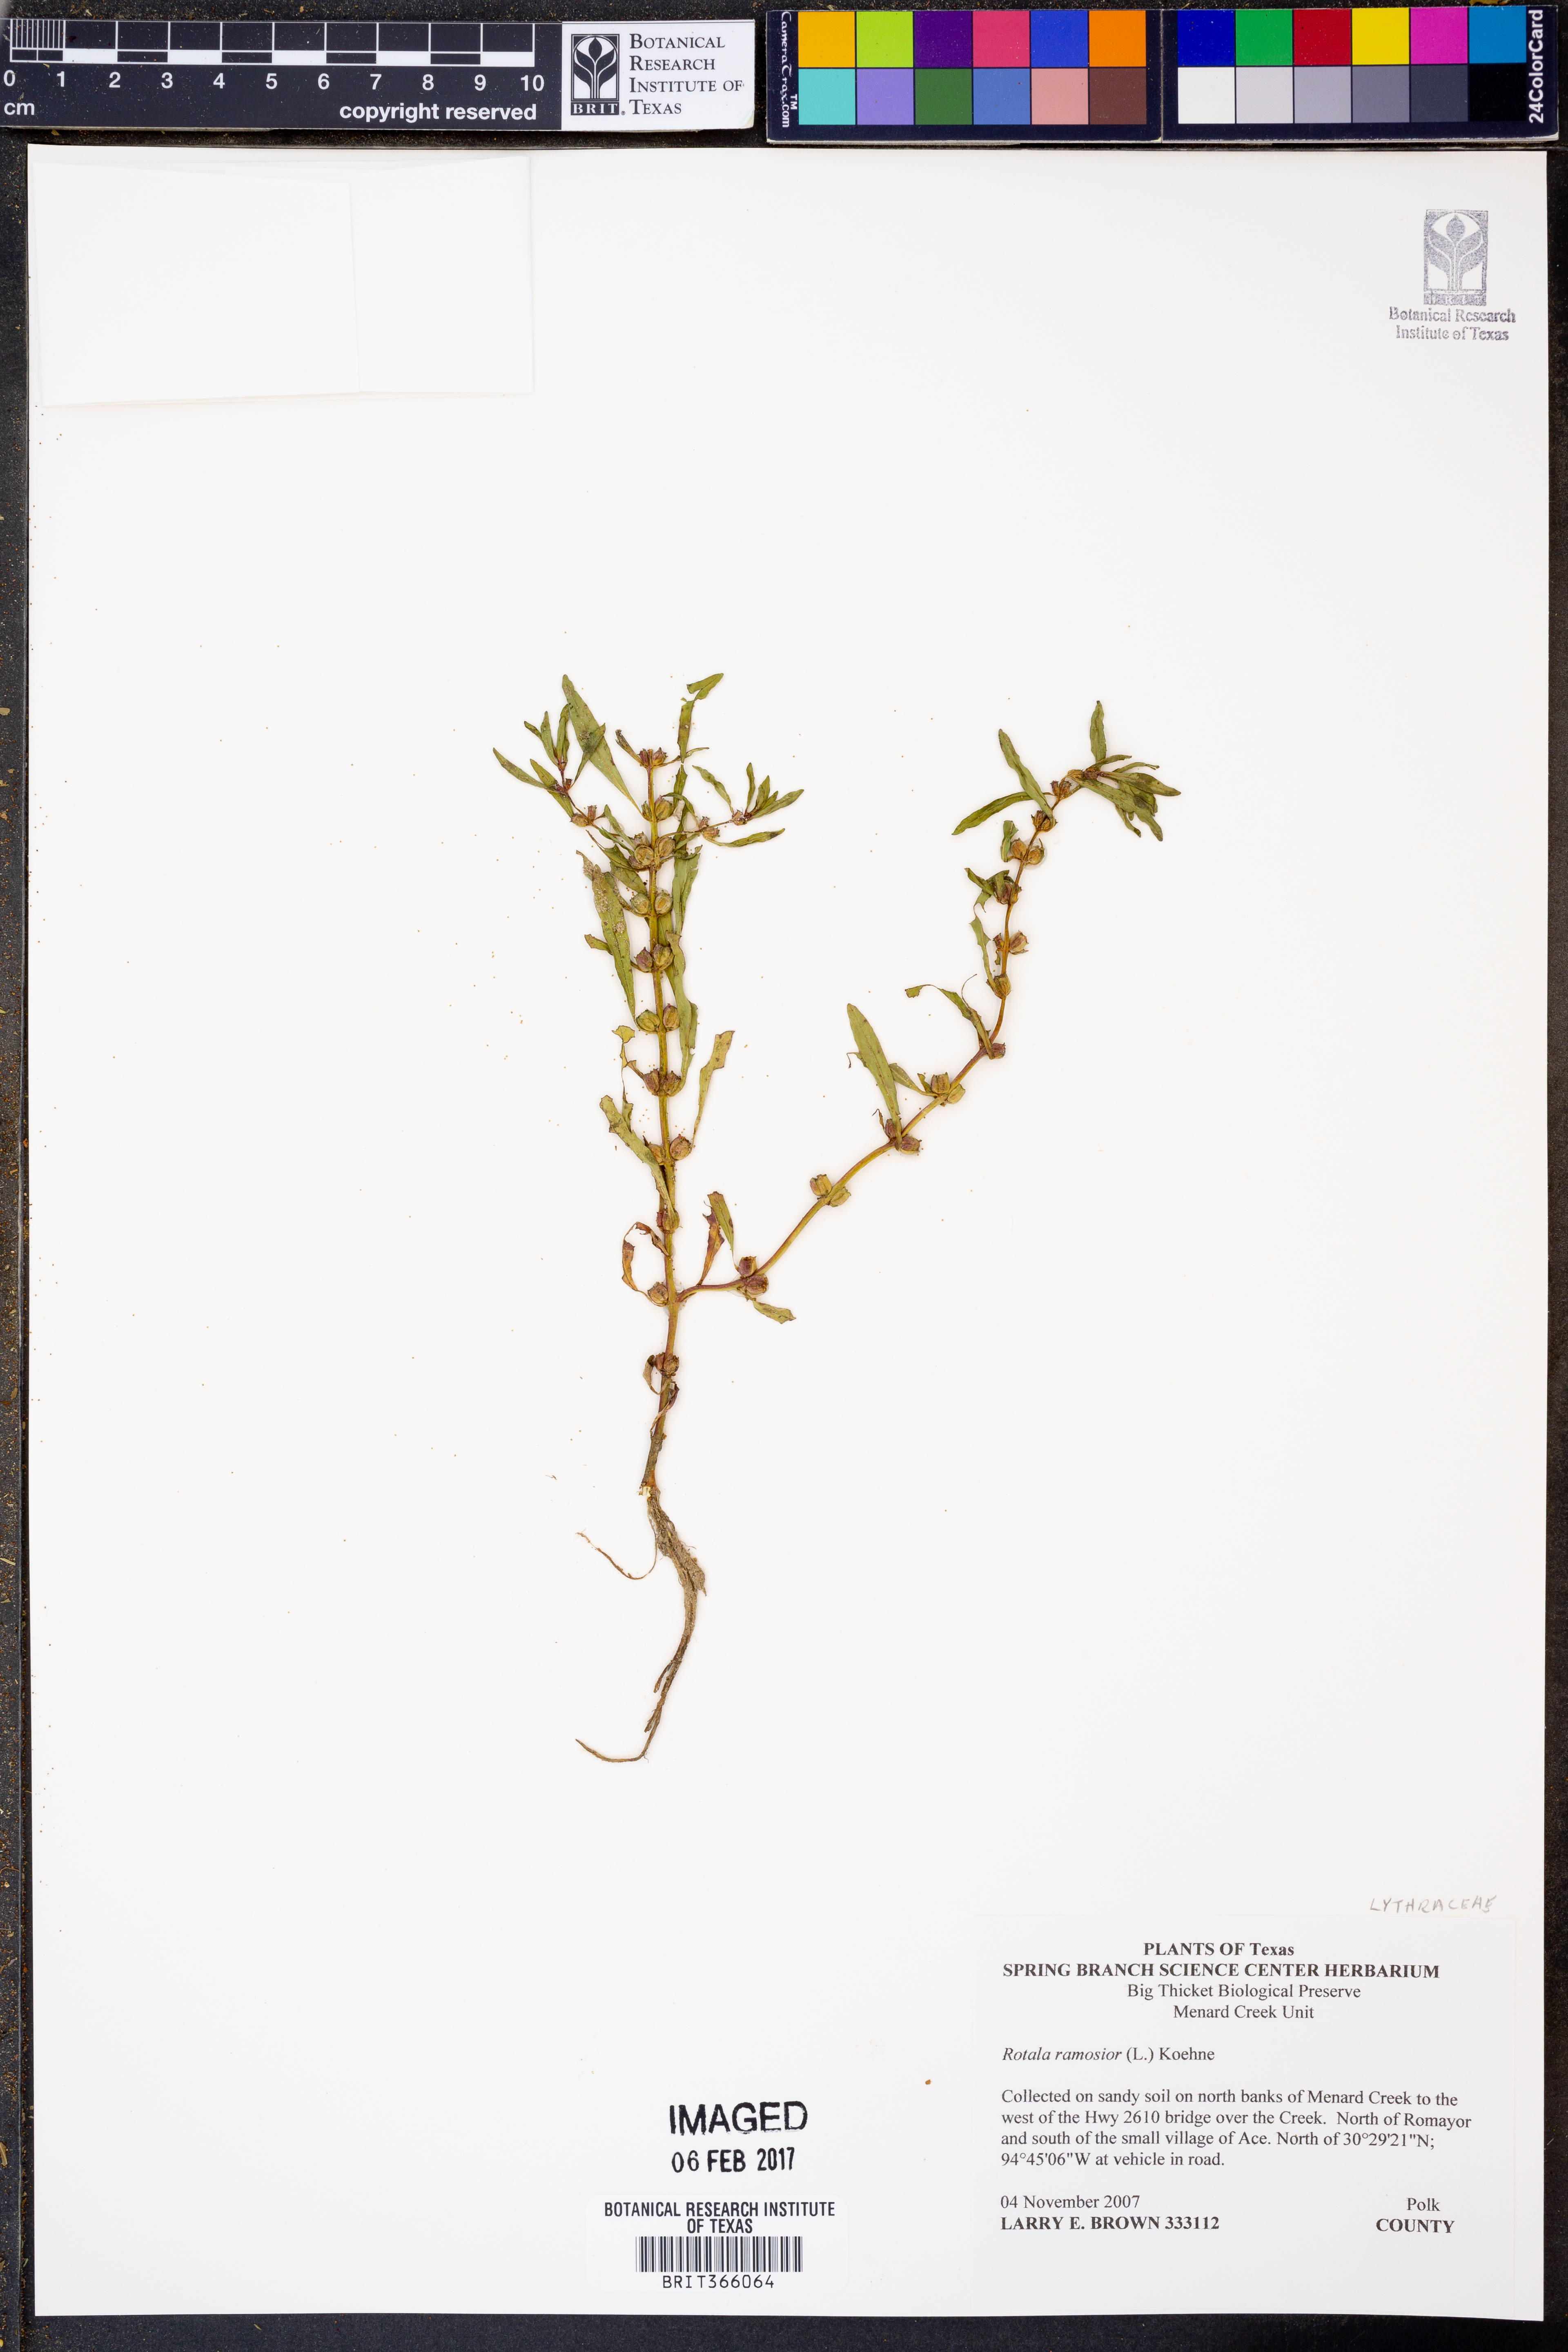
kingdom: Plantae
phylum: Tracheophyta
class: Magnoliopsida
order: Myrtales
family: Lythraceae
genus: Rotala
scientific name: Rotala ramosior
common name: Lowland rotala
